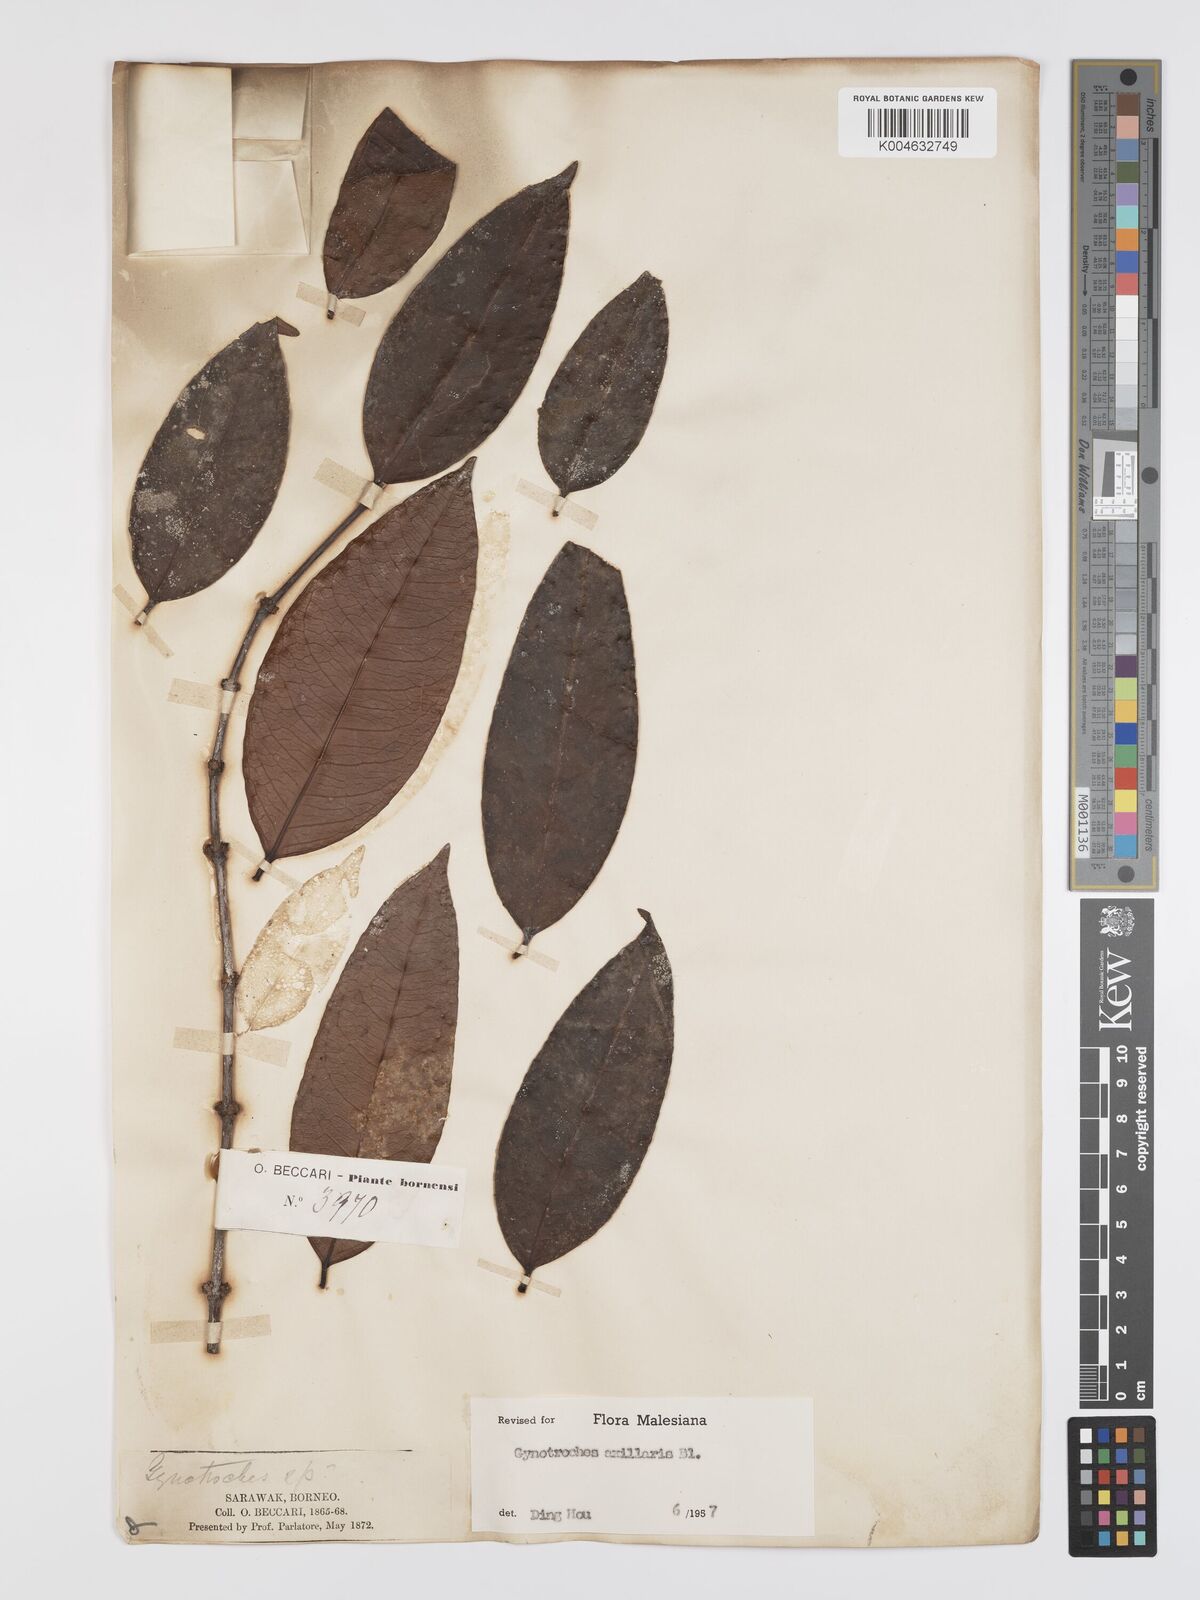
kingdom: Plantae
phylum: Tracheophyta
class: Magnoliopsida
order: Malpighiales
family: Rhizophoraceae
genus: Gynotroches
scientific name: Gynotroches axillaris
